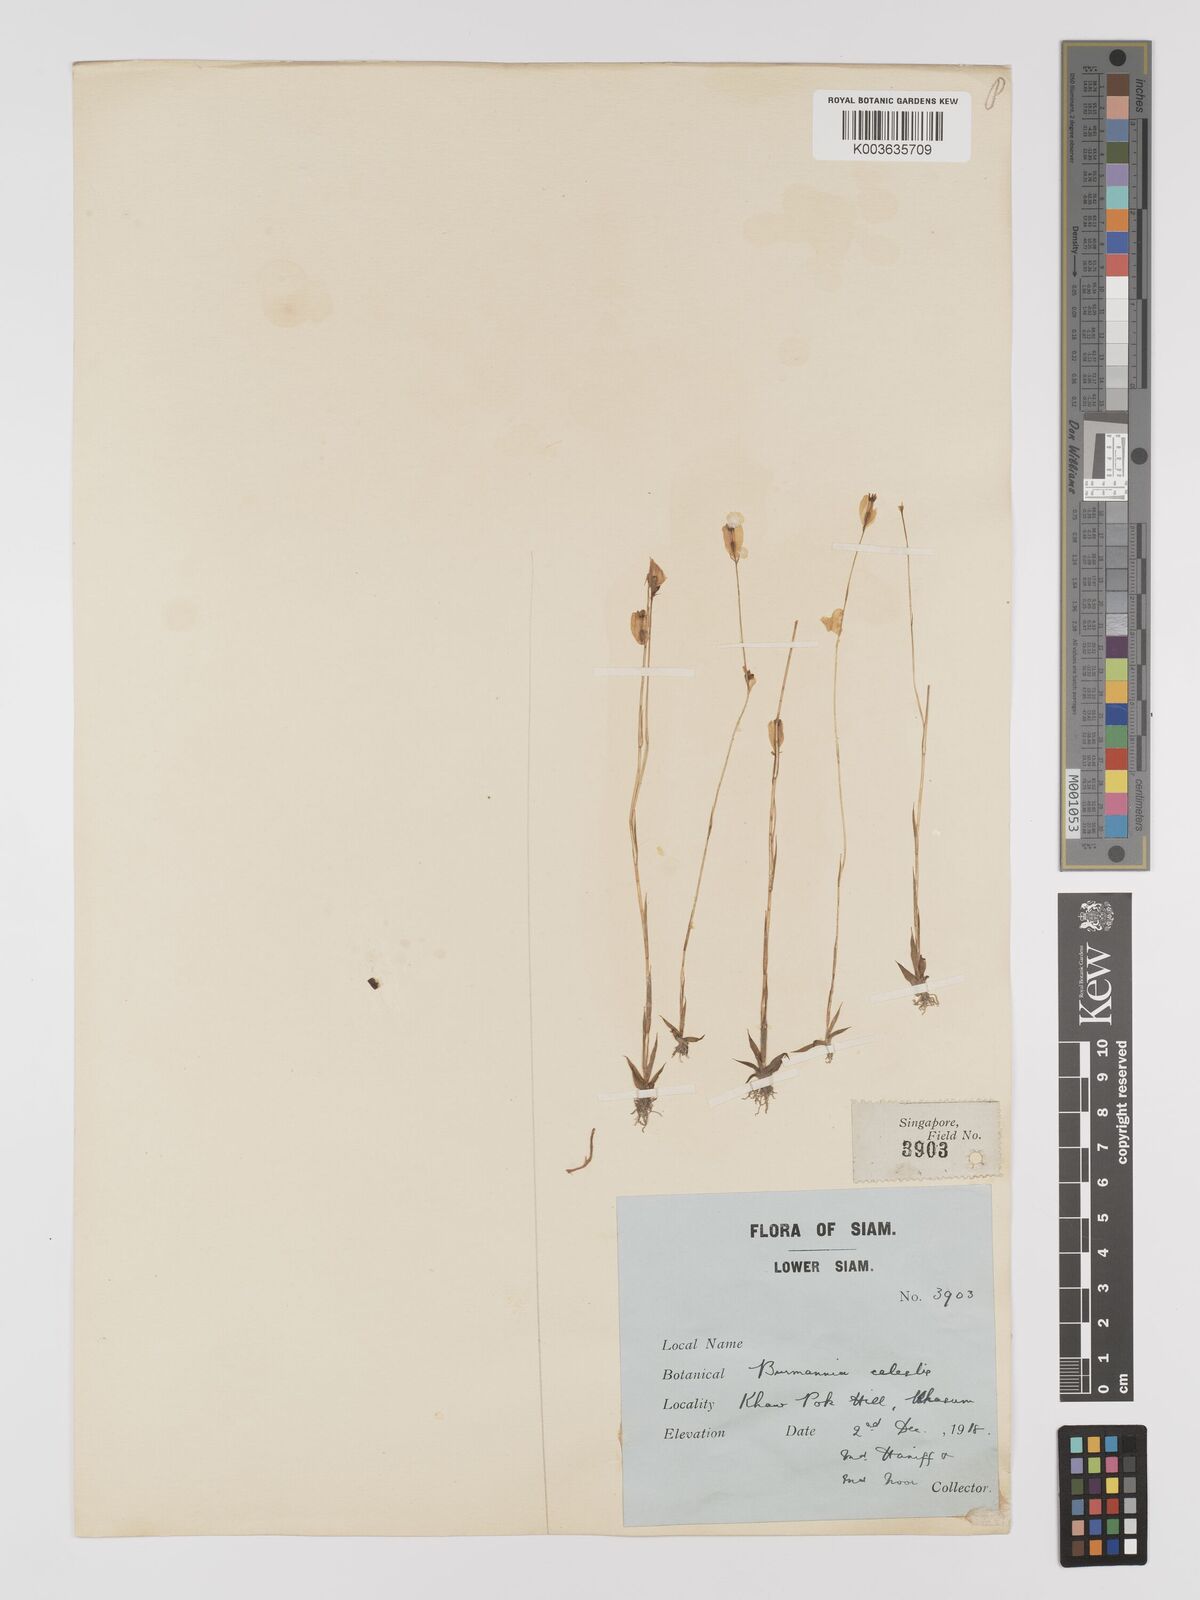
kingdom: Plantae
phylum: Tracheophyta
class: Liliopsida
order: Dioscoreales
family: Burmanniaceae
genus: Burmannia
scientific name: Burmannia coelestis
